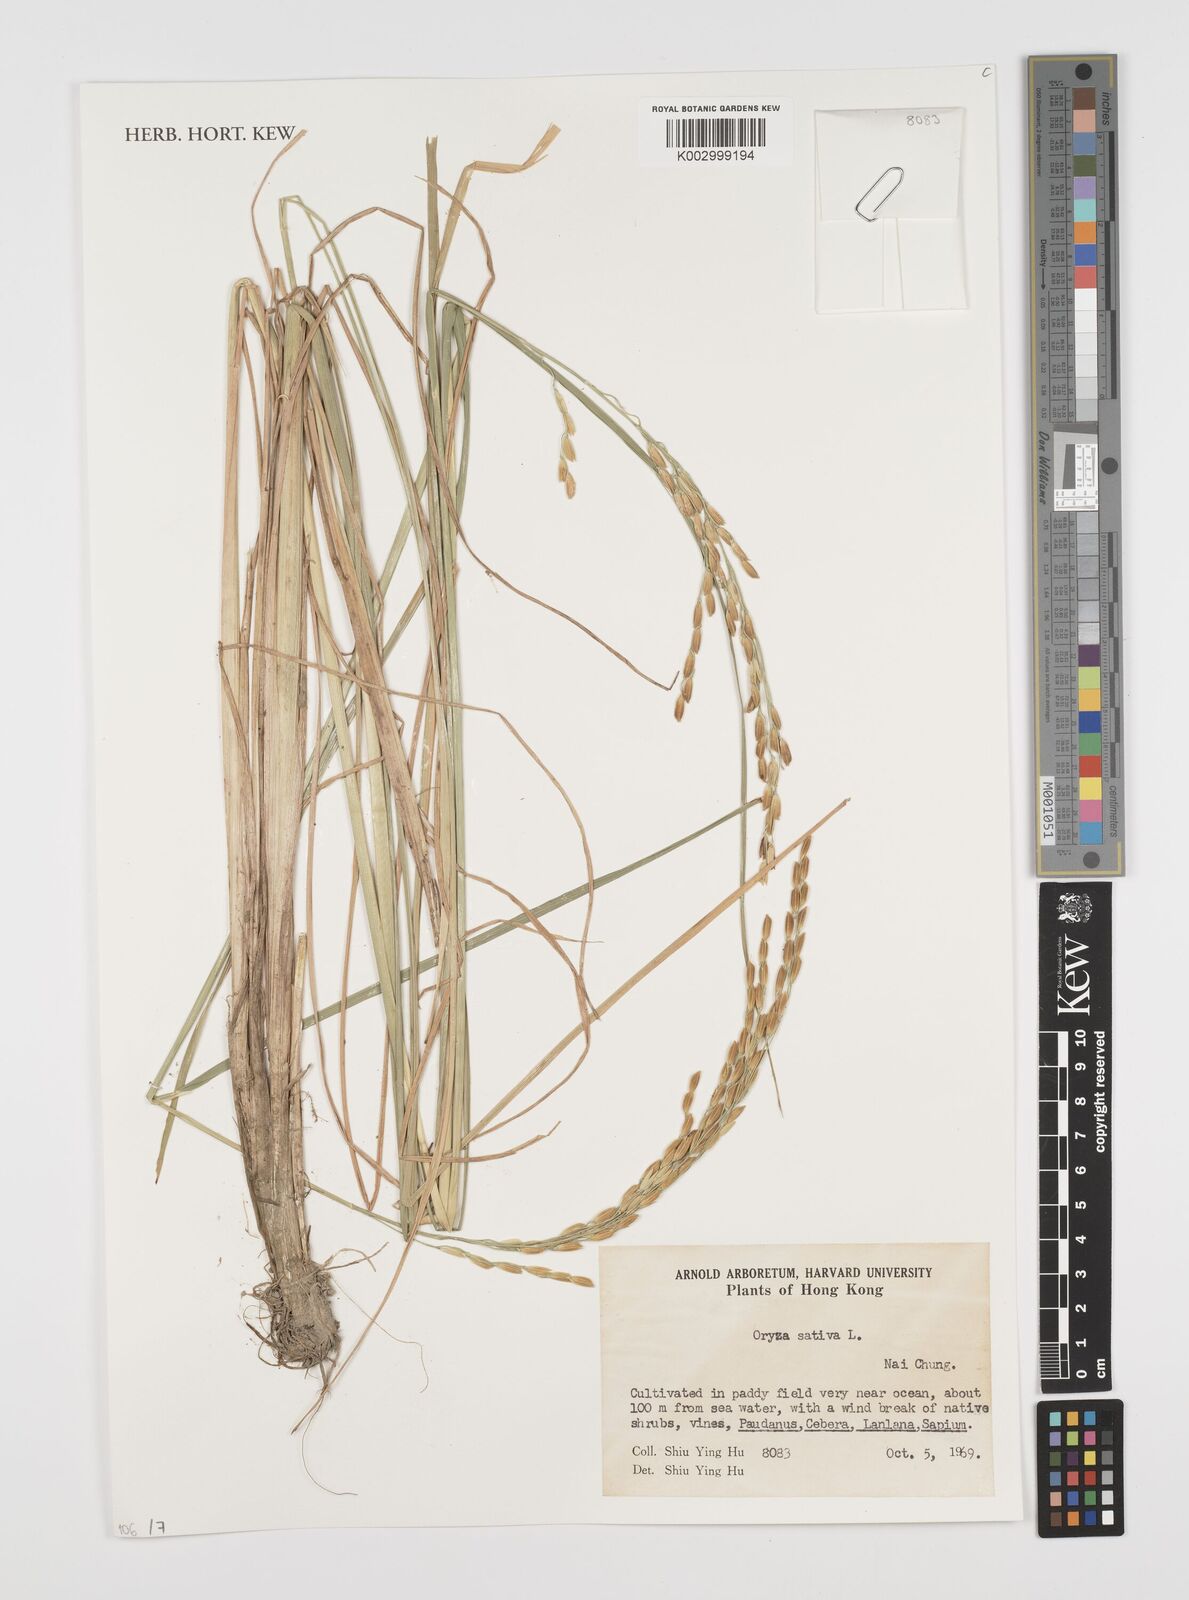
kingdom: Plantae
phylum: Tracheophyta
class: Liliopsida
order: Poales
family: Poaceae
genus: Oryza
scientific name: Oryza sativa
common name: Rice
